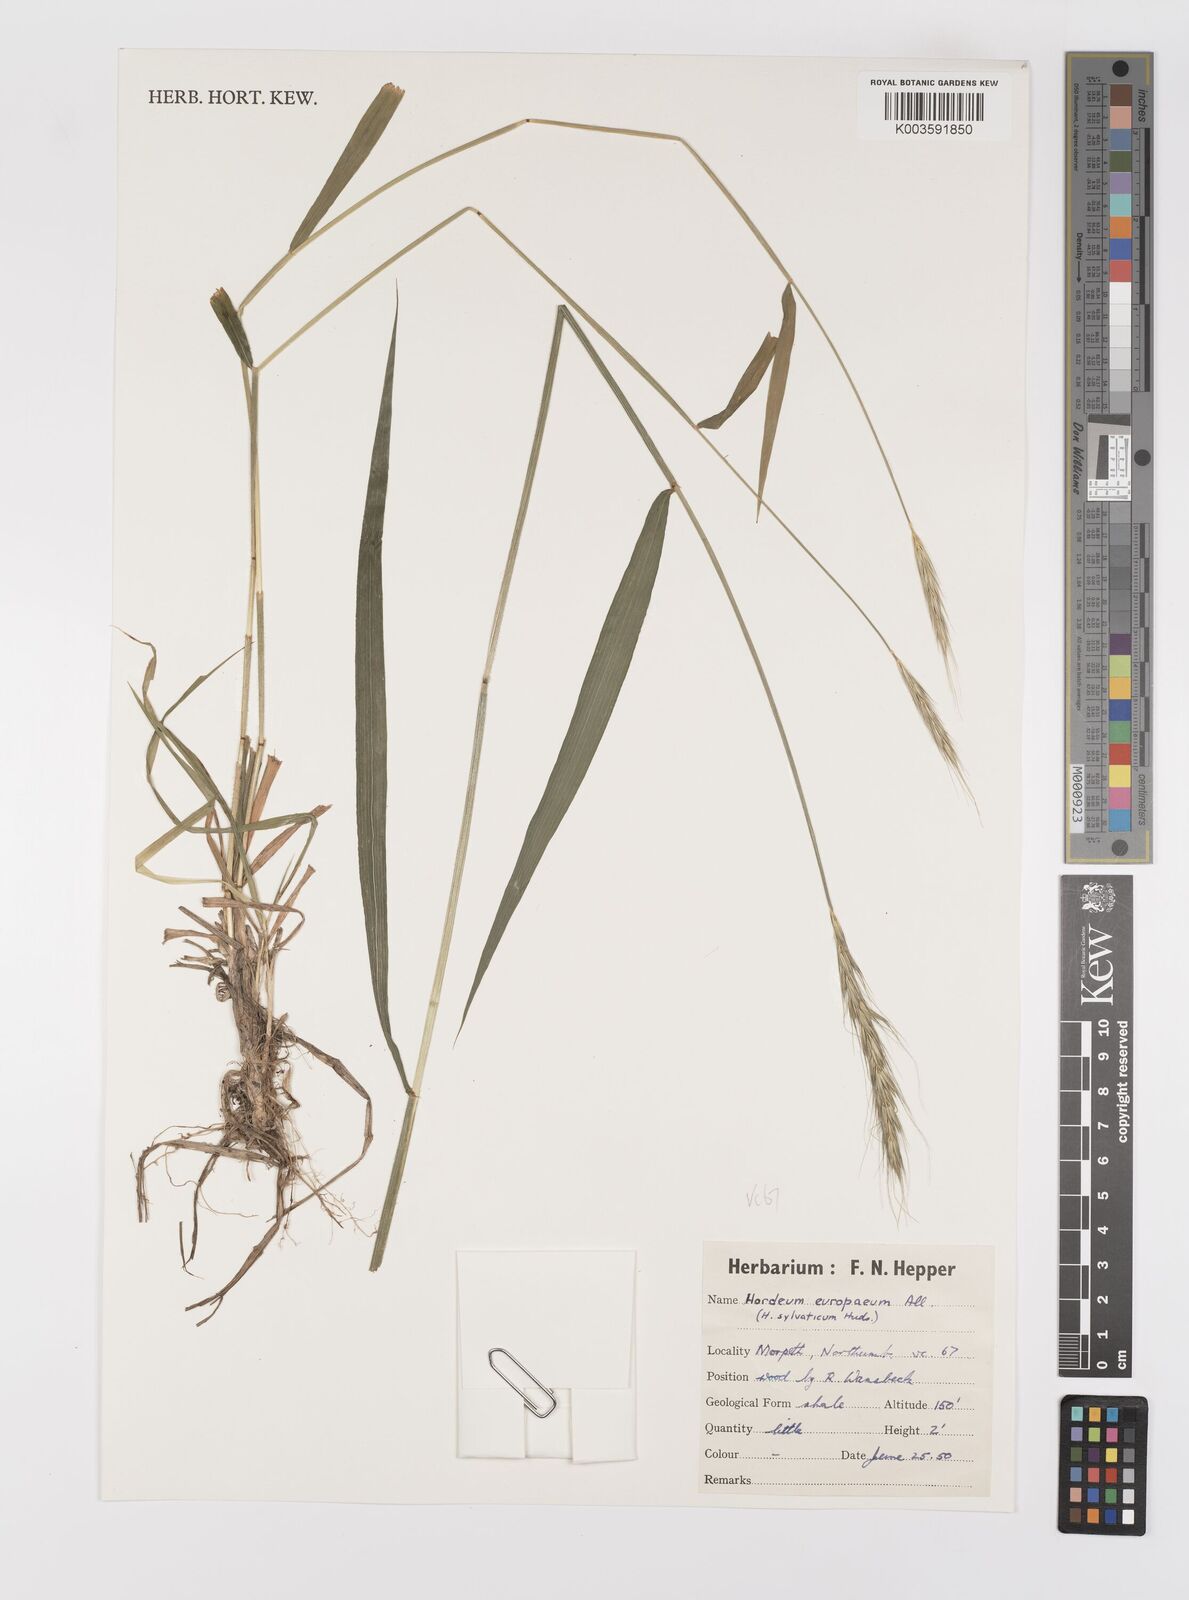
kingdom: Plantae
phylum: Tracheophyta
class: Liliopsida
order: Poales
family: Poaceae
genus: Hordelymus
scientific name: Hordelymus europaeus
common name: Wood-barley
